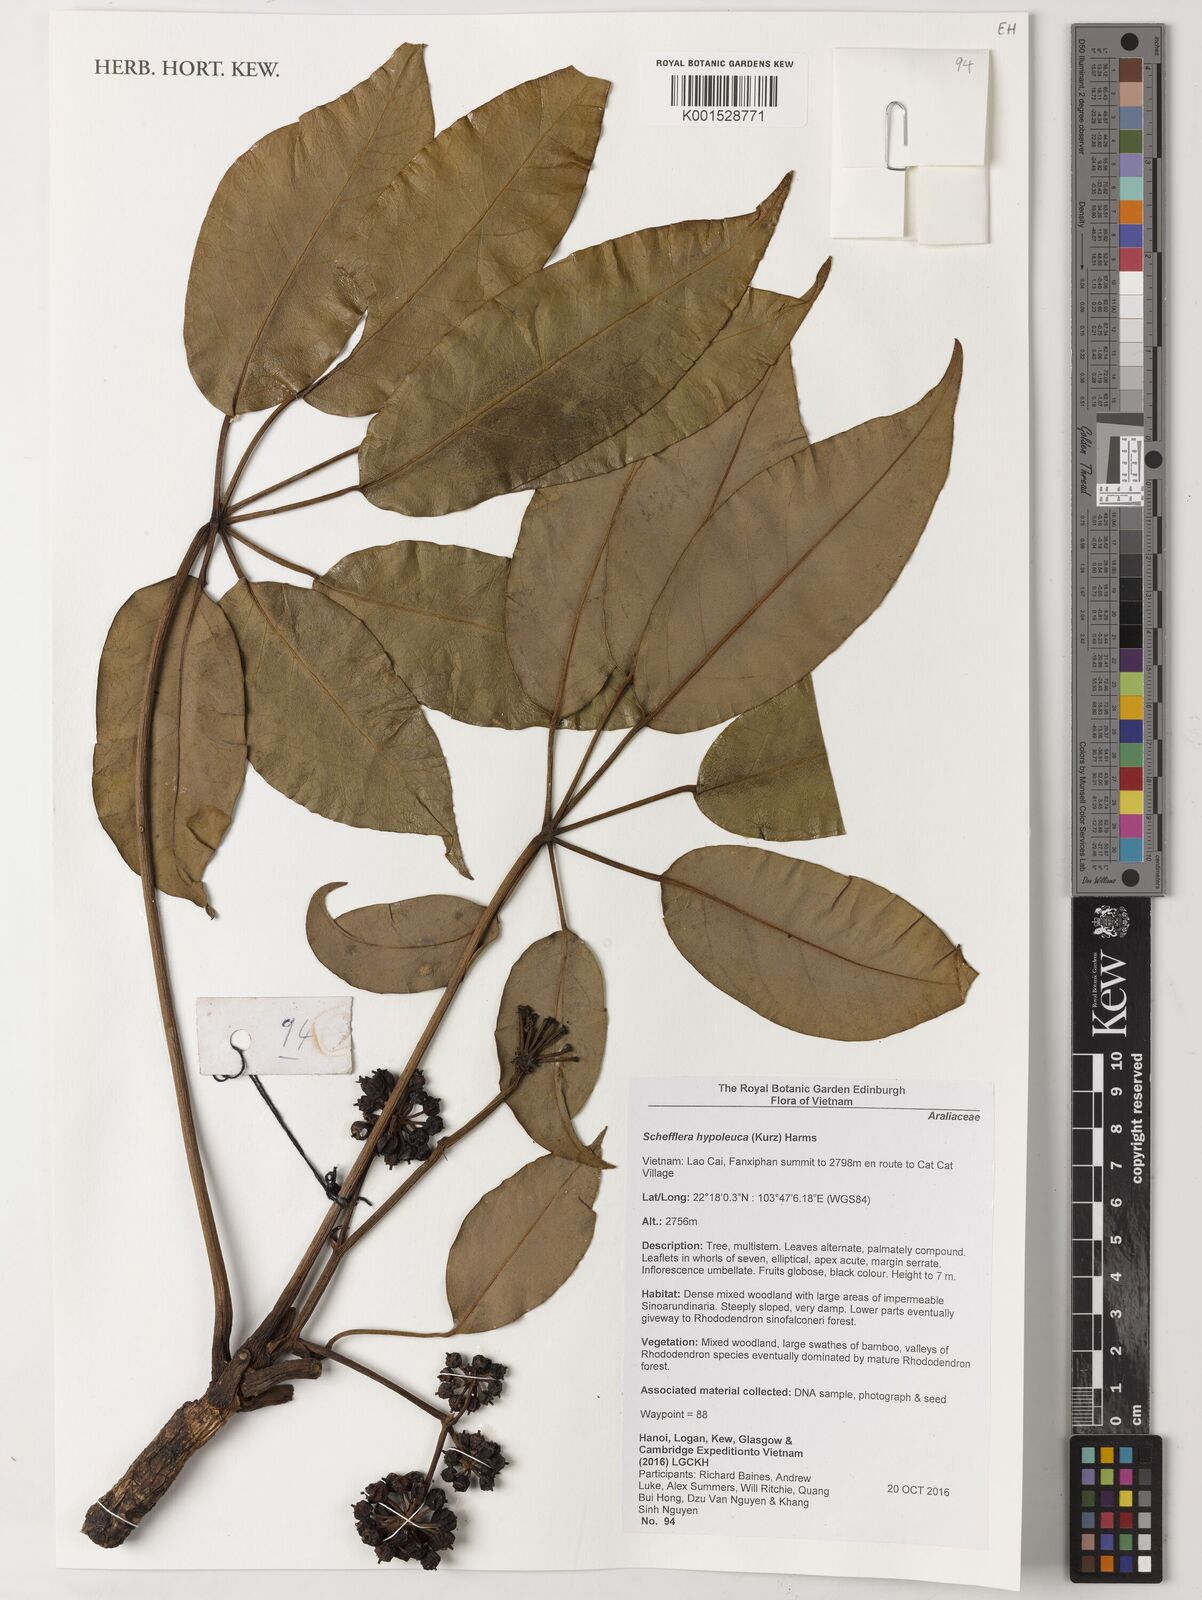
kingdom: Plantae
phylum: Tracheophyta
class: Magnoliopsida
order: Apiales
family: Araliaceae
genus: Heptapleurum
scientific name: Heptapleurum hypoleucum
